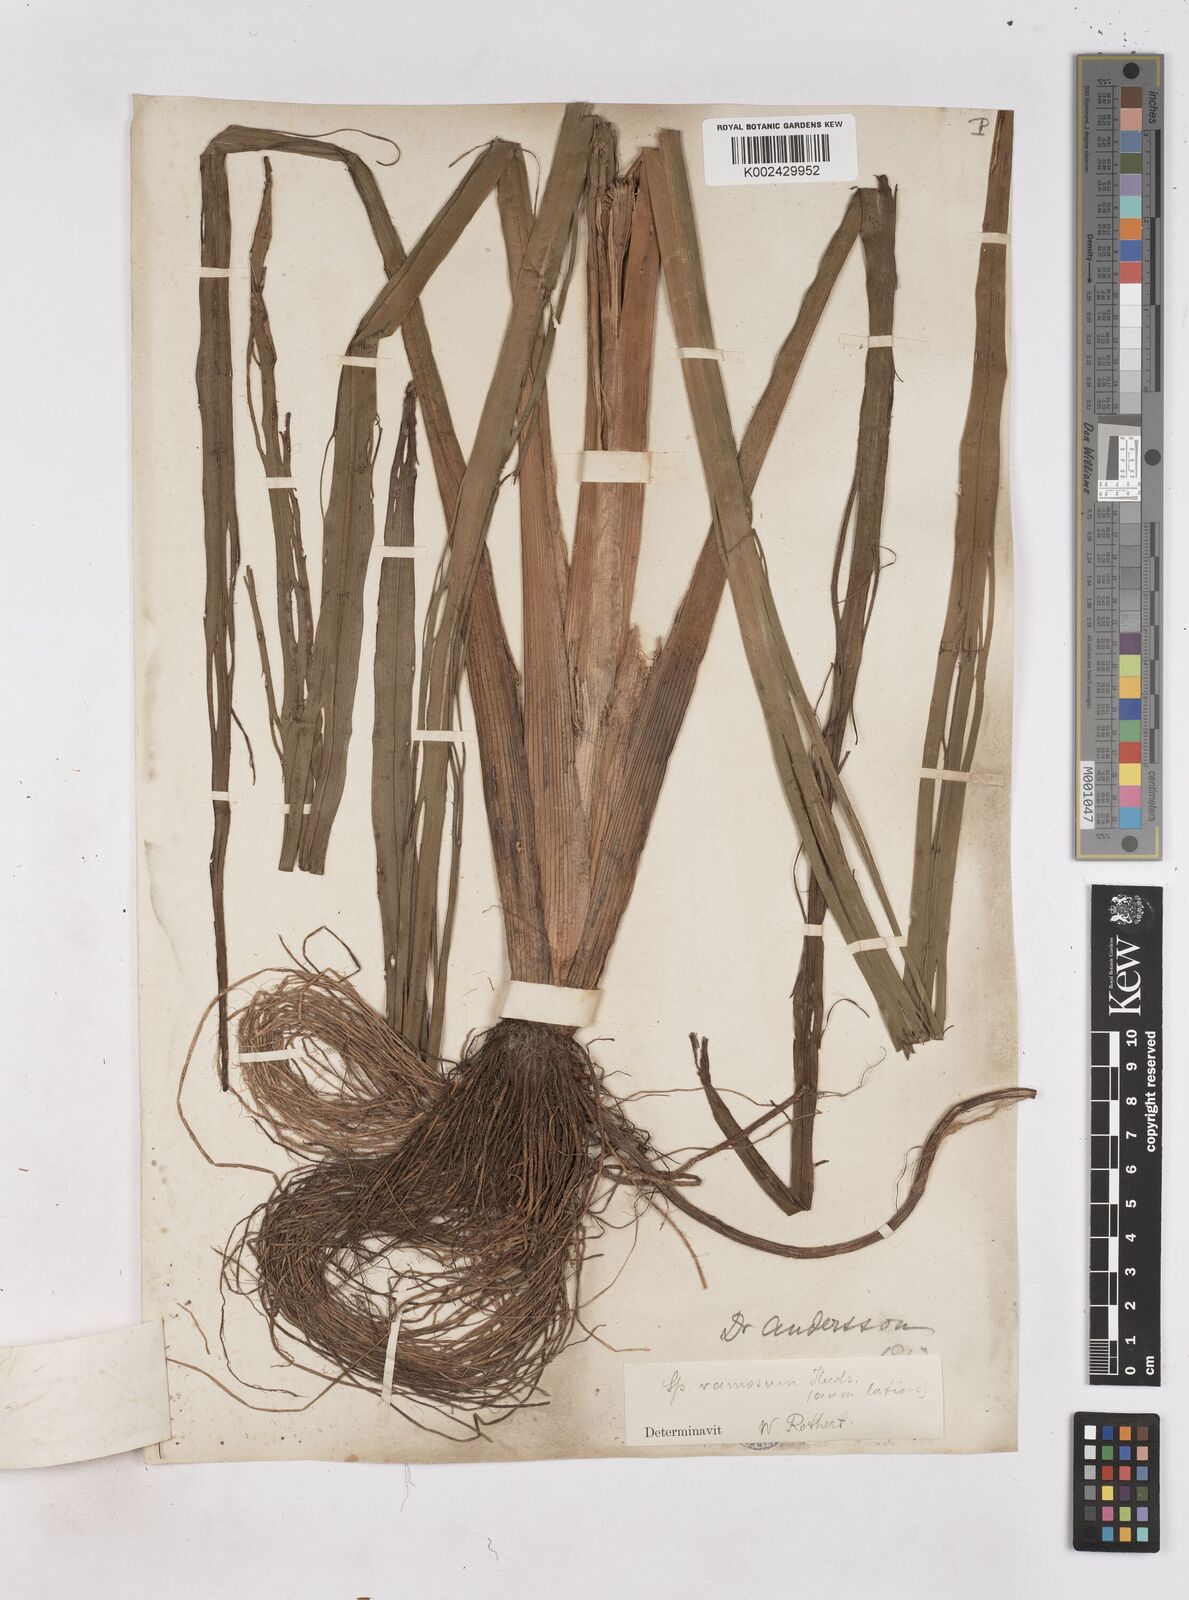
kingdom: Plantae
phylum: Tracheophyta
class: Liliopsida
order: Poales
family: Typhaceae
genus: Sparganium
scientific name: Sparganium erectum
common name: Branched bur-reed
